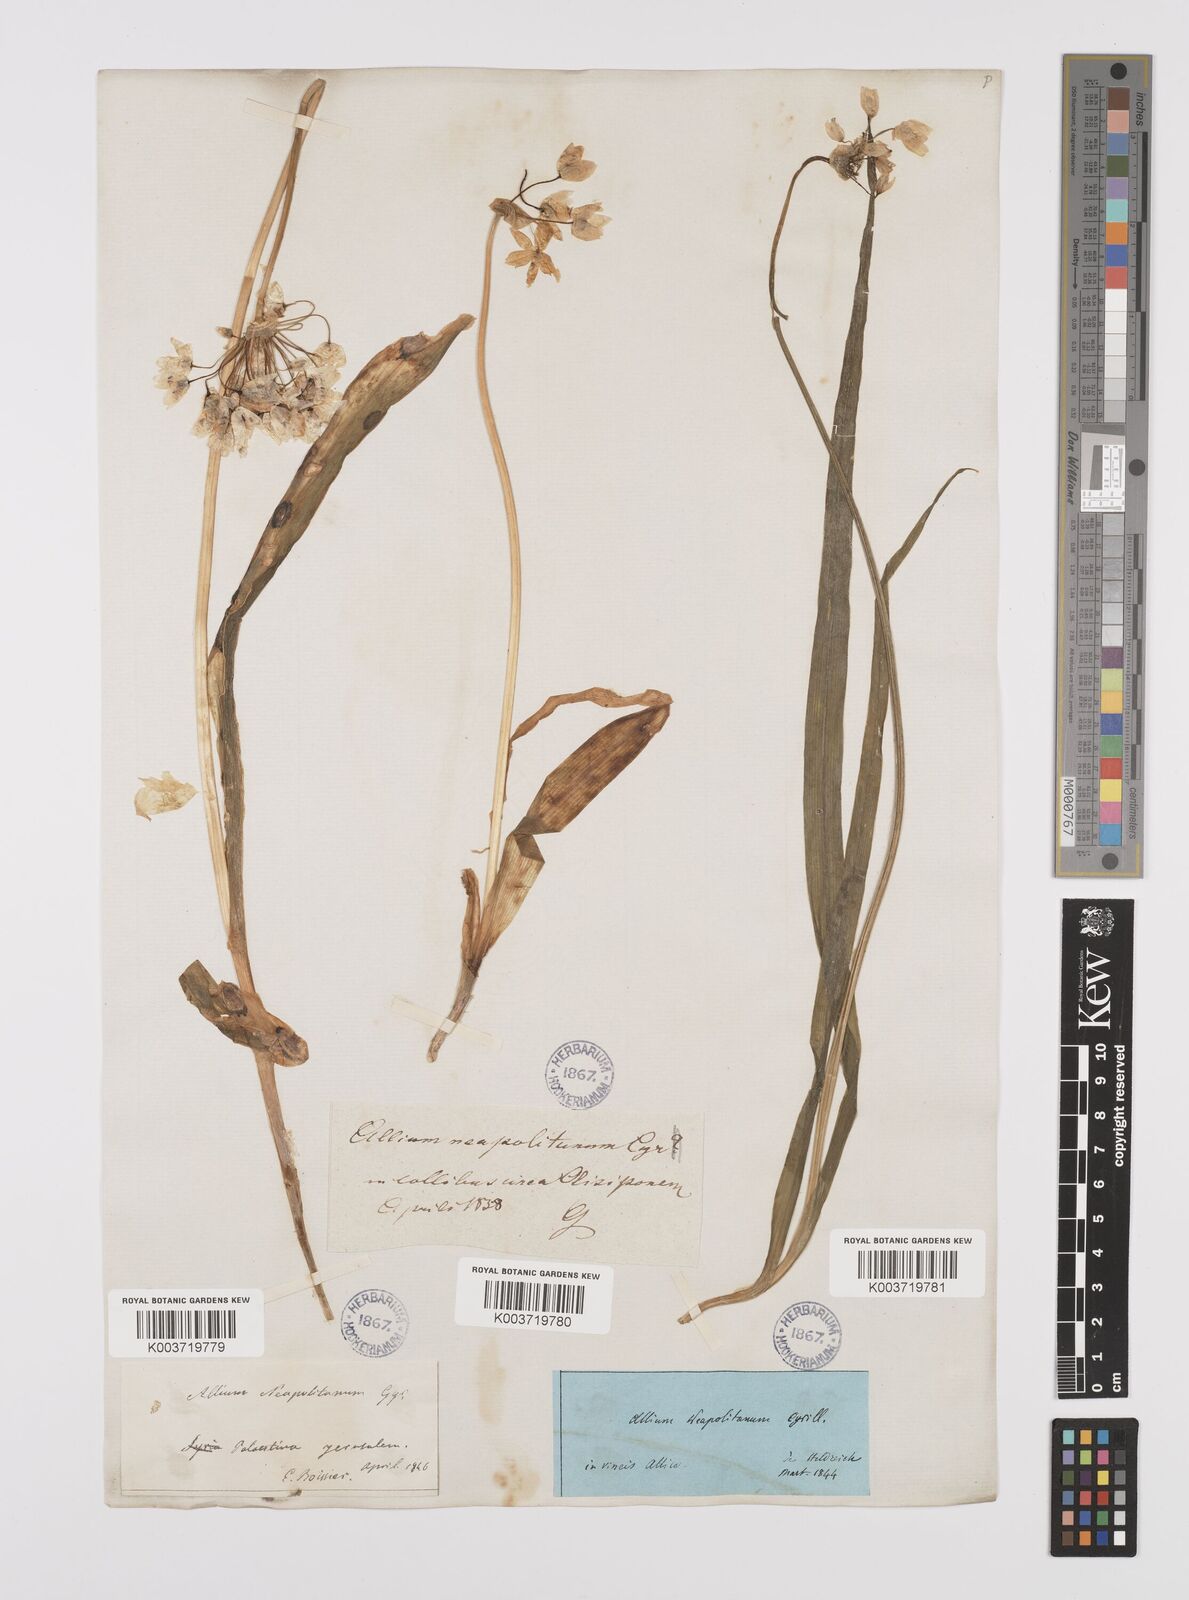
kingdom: Plantae
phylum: Tracheophyta
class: Liliopsida
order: Asparagales
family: Amaryllidaceae
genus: Allium
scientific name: Allium neapolitanum
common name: Neapolitan garlic
